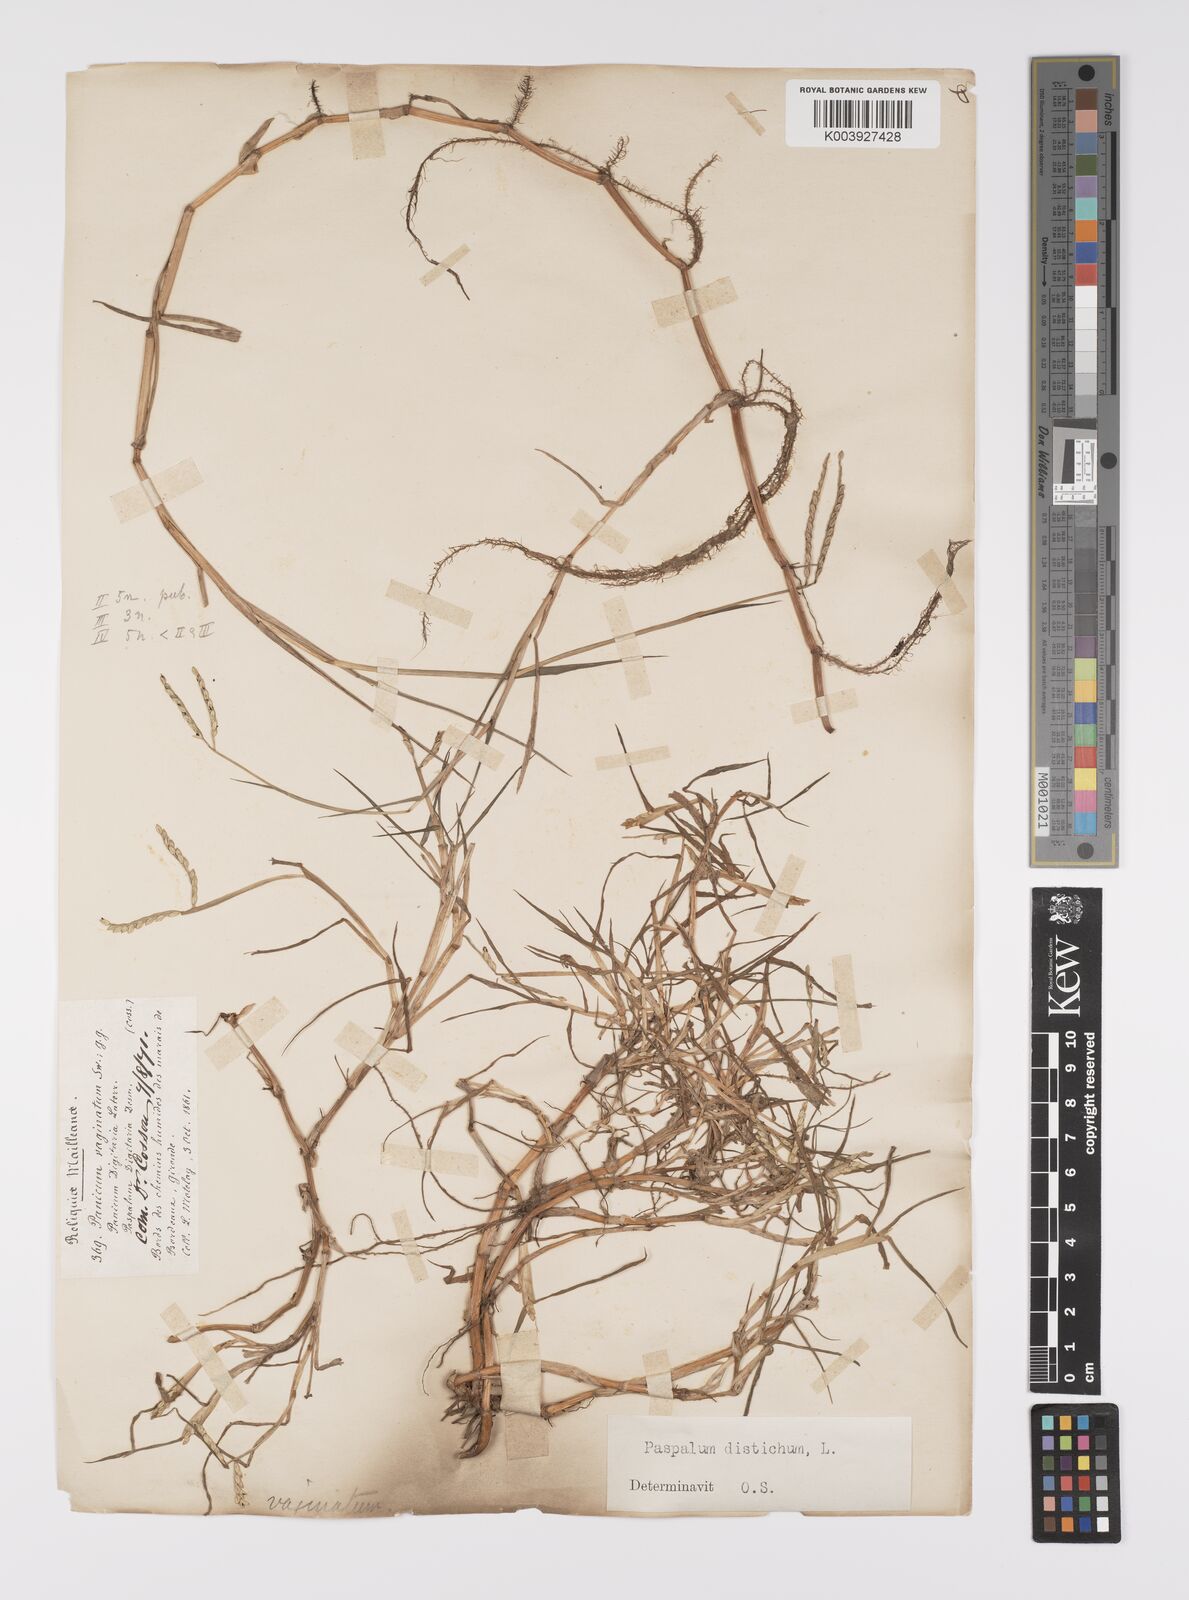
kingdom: Plantae
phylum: Tracheophyta
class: Liliopsida
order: Poales
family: Poaceae
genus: Paspalum
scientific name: Paspalum distichum
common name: Knotgrass
